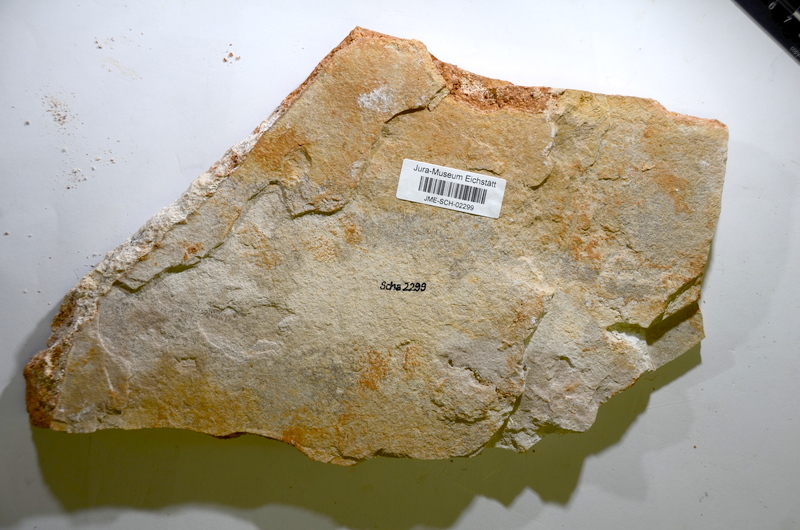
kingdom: Animalia
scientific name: Animalia
